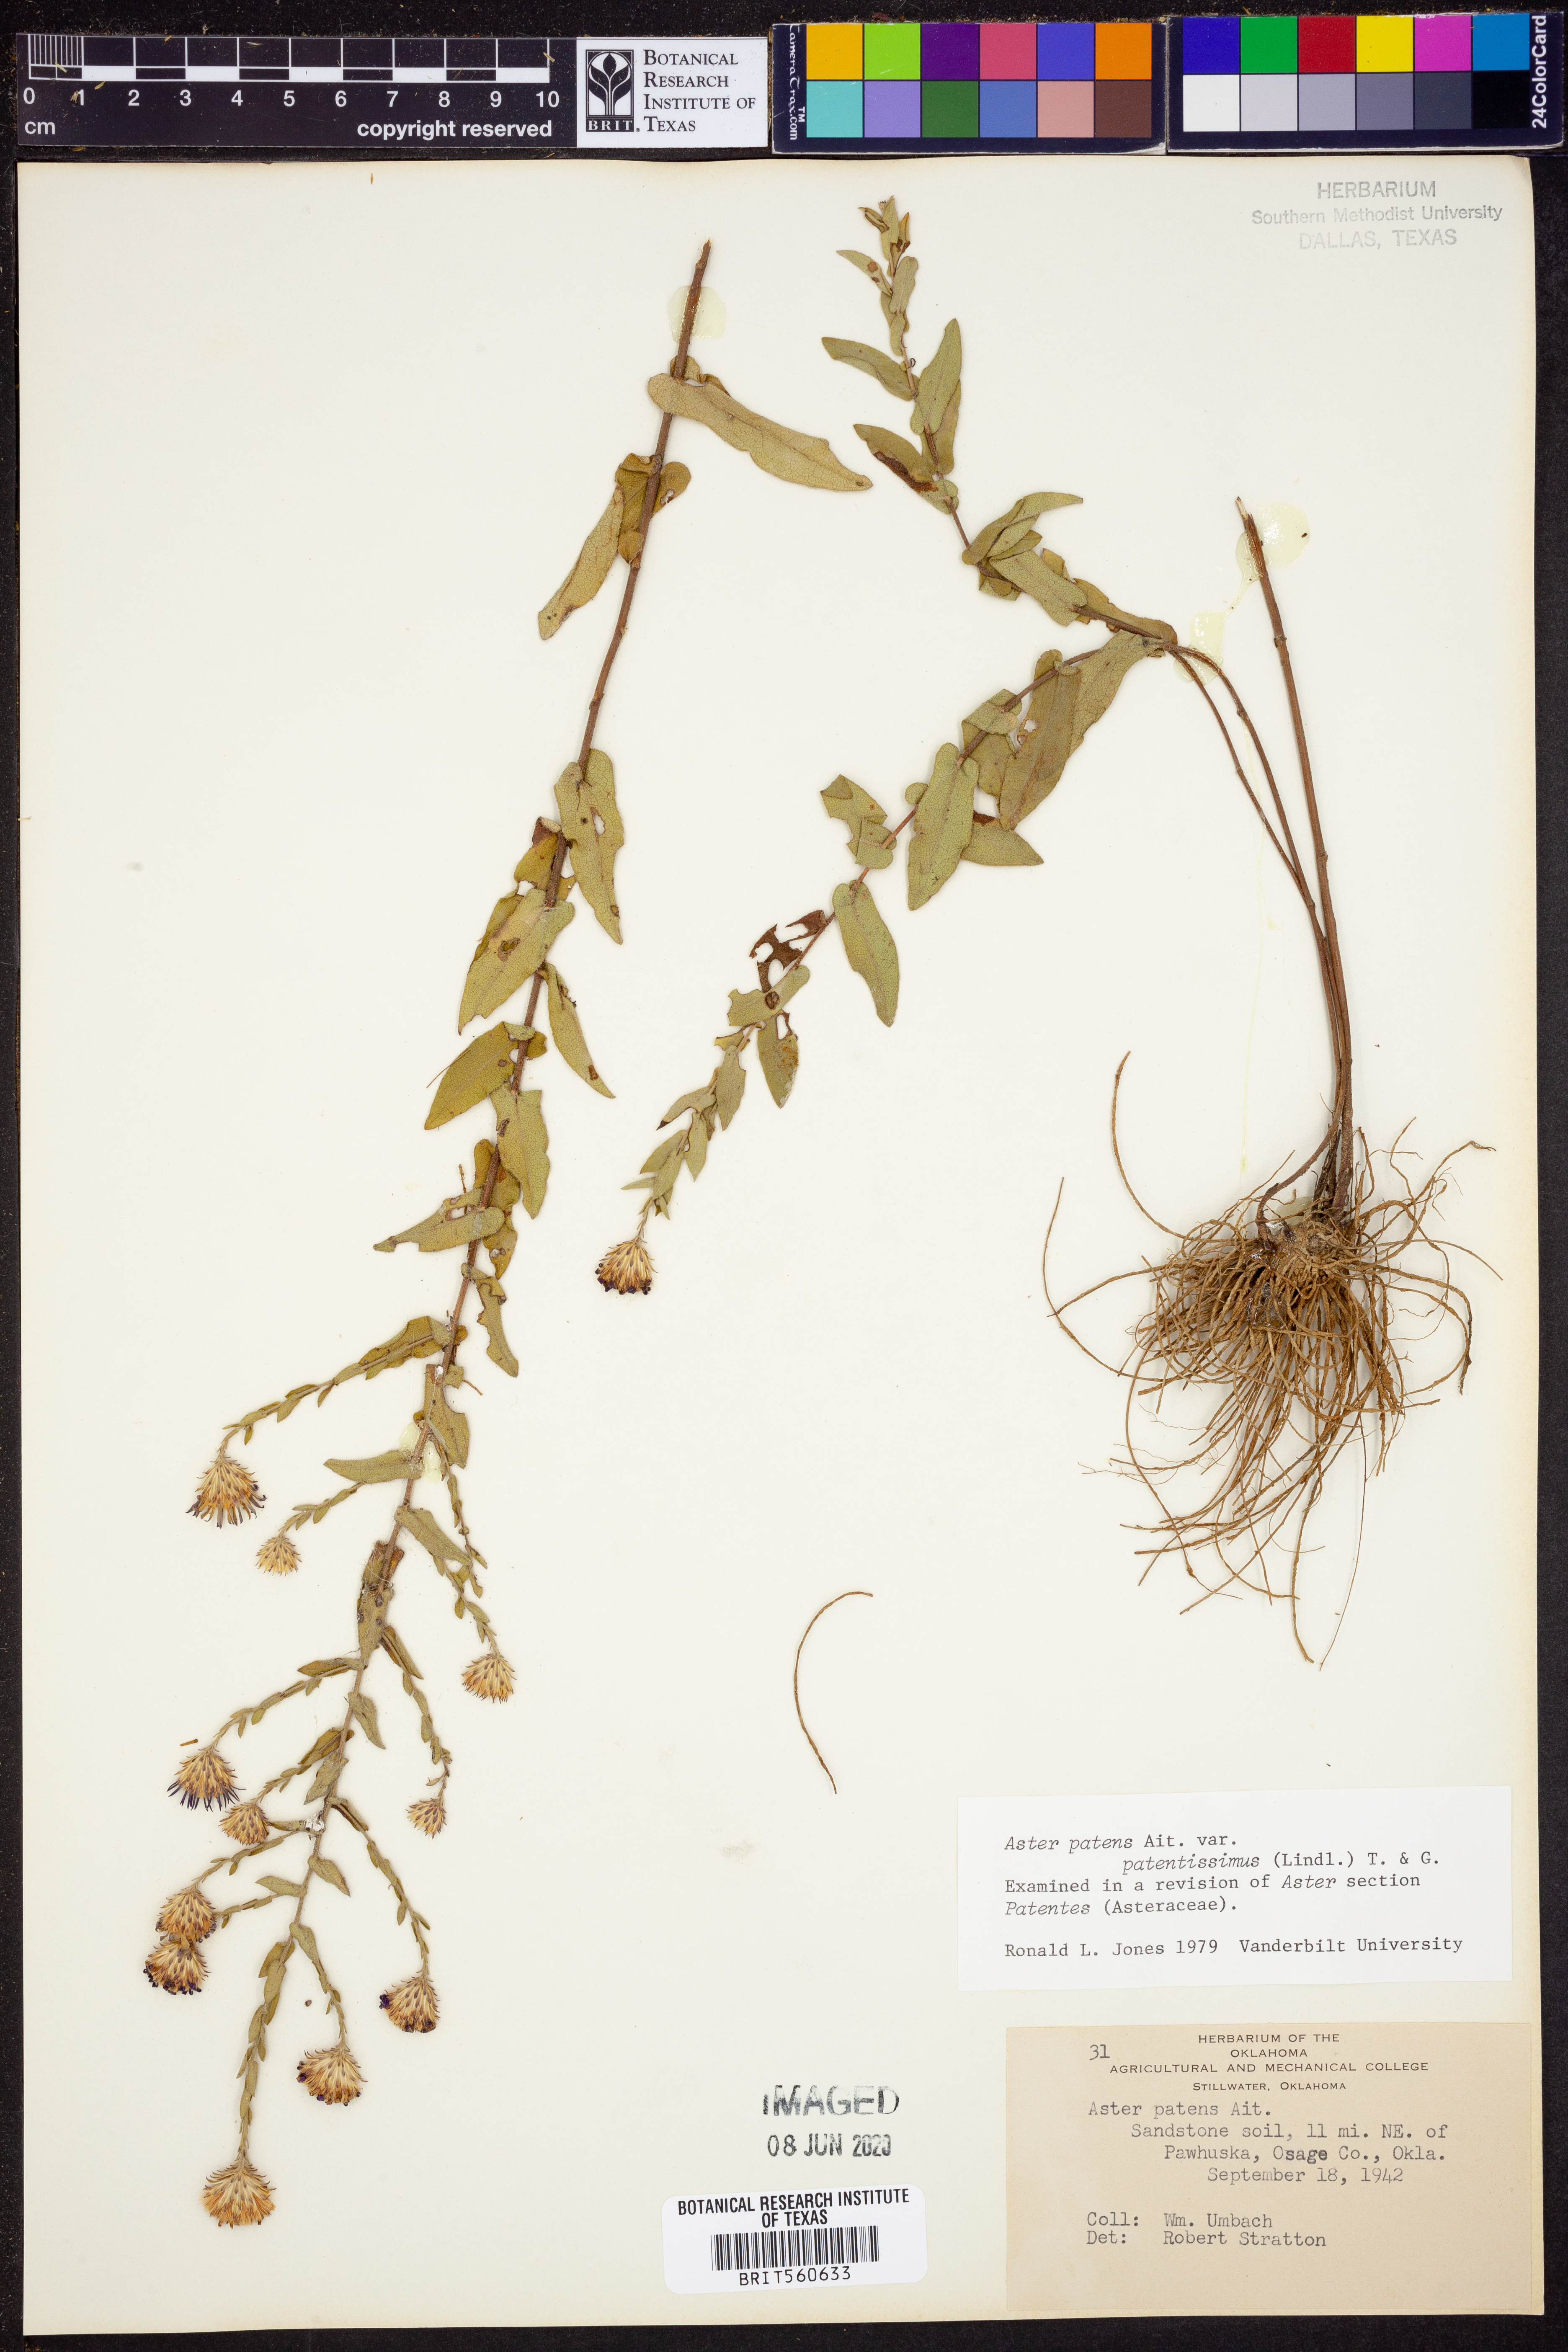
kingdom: Plantae
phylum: Tracheophyta
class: Magnoliopsida
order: Asterales
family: Asteraceae
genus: Symphyotrichum
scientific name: Symphyotrichum patens
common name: Late purple aster
